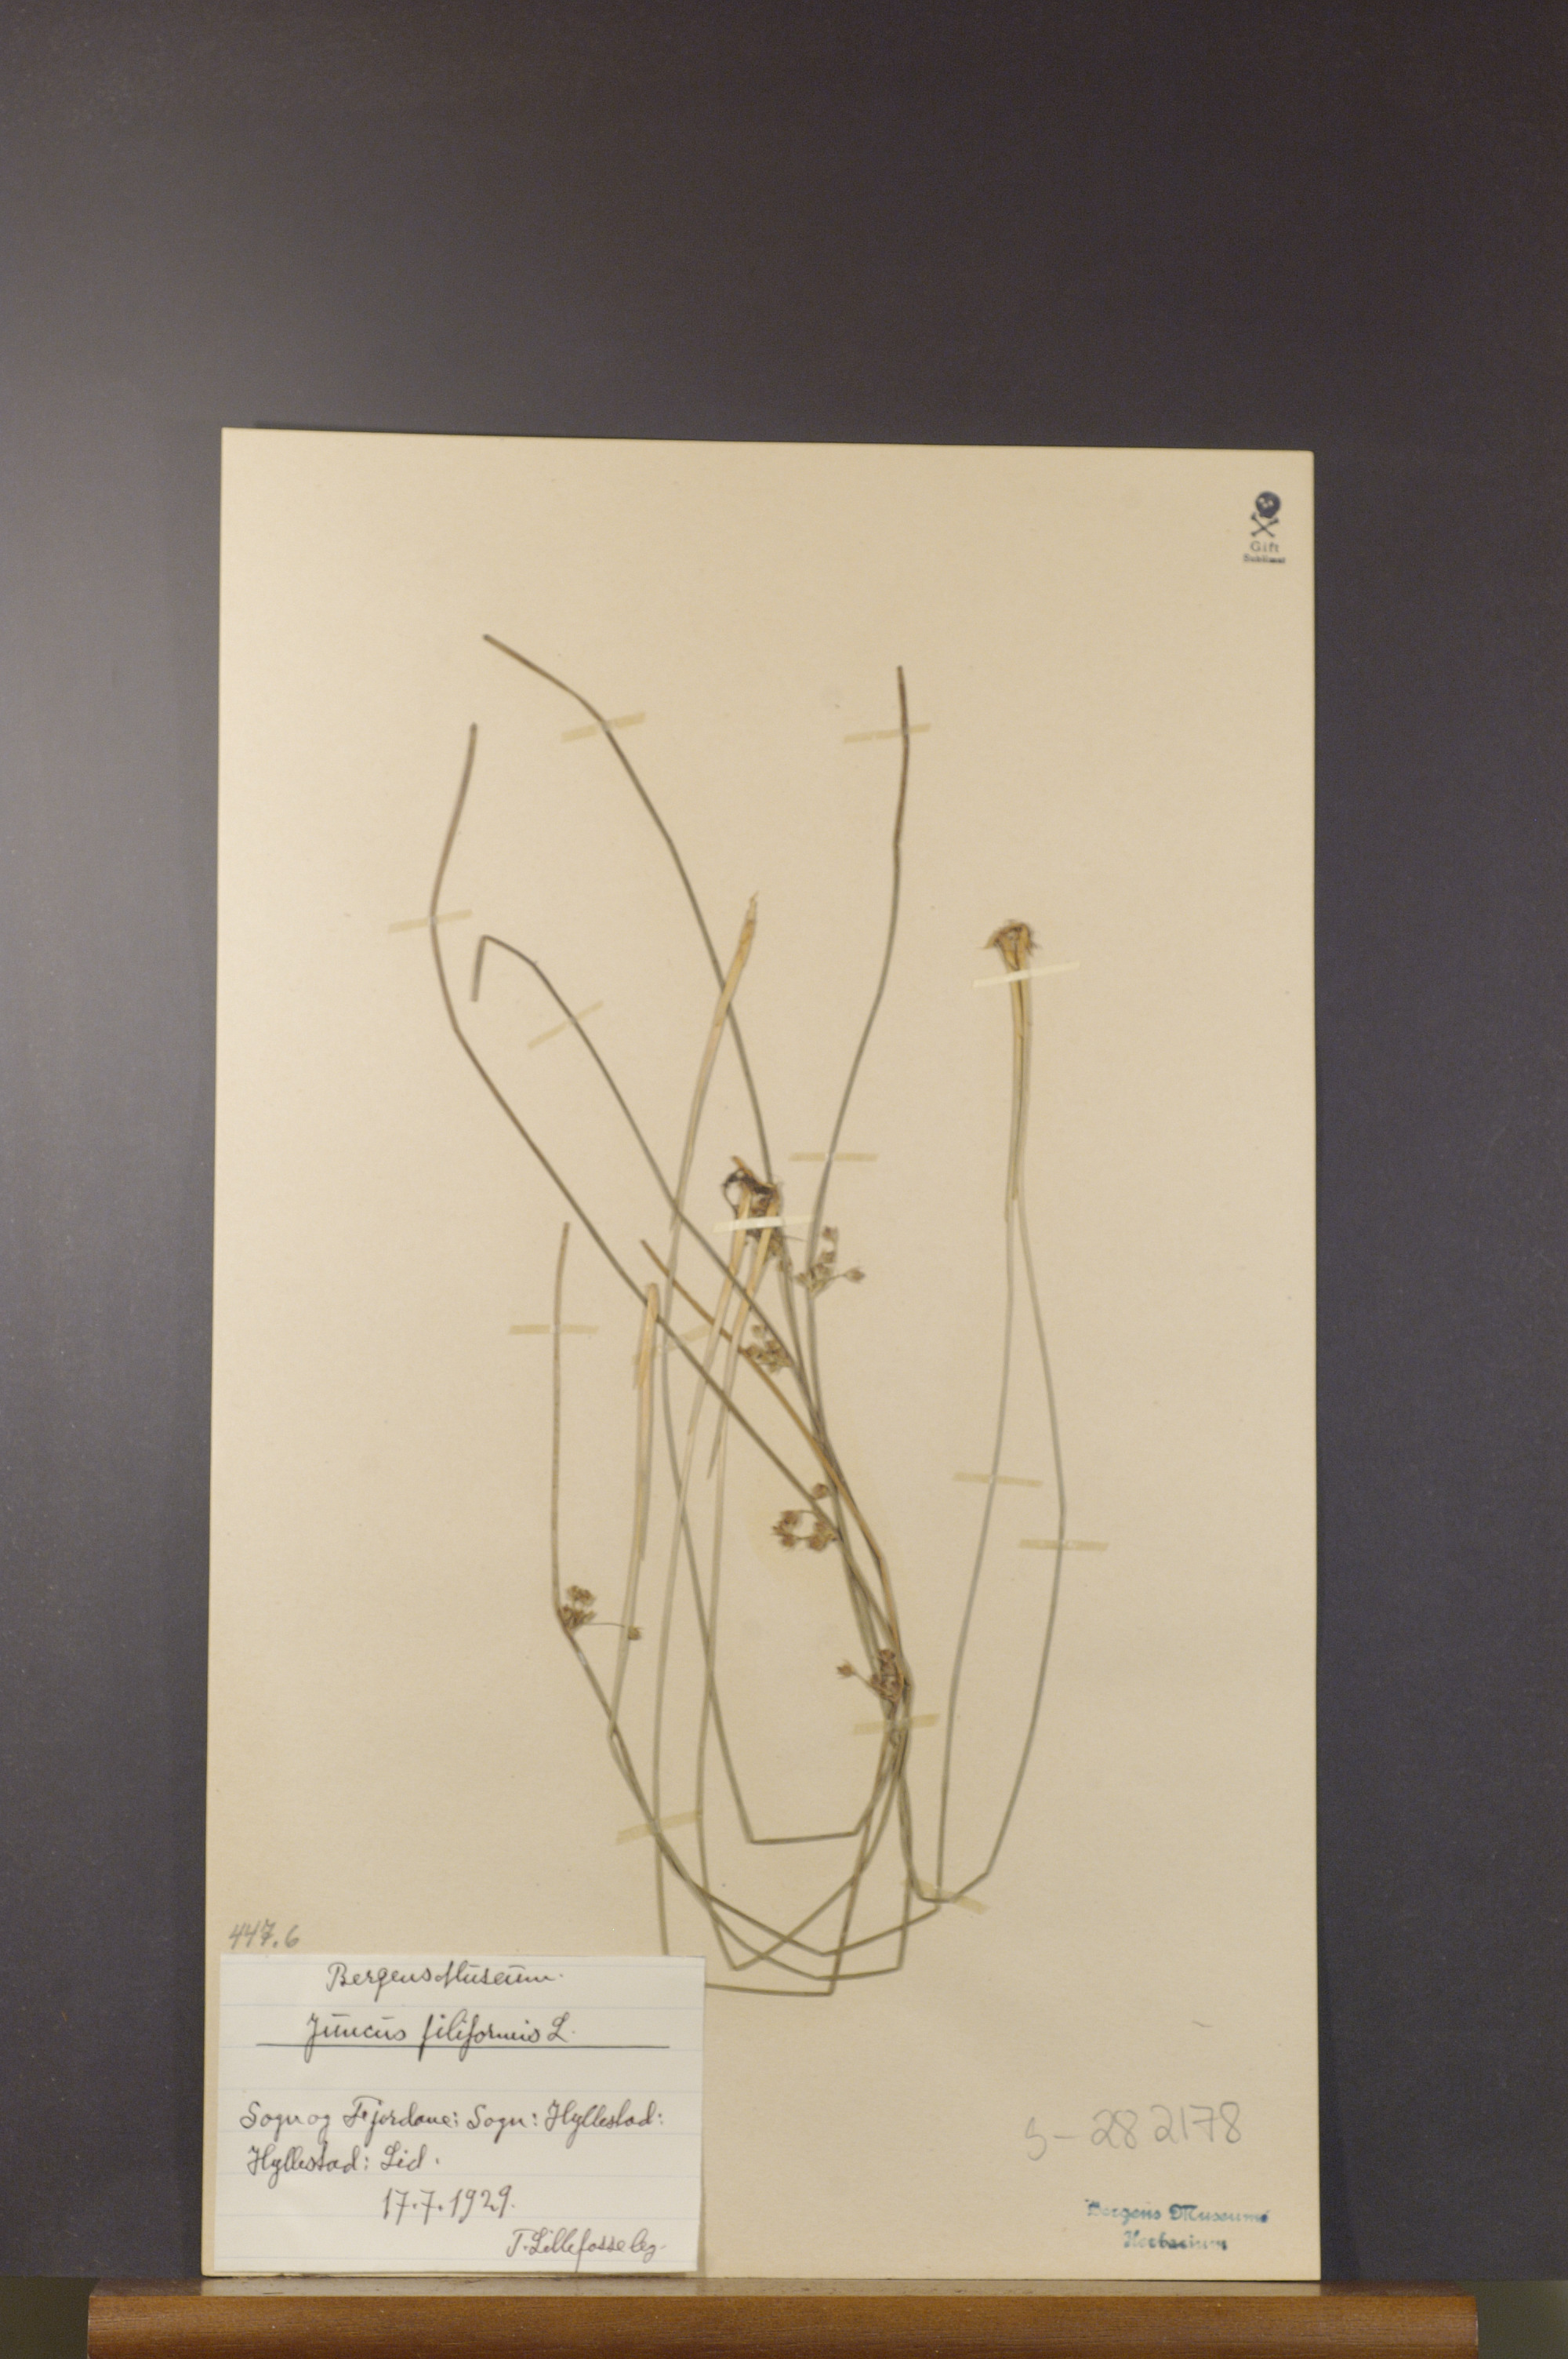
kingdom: Plantae
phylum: Tracheophyta
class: Liliopsida
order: Poales
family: Juncaceae
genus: Juncus
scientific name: Juncus filiformis
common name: Thread rush
